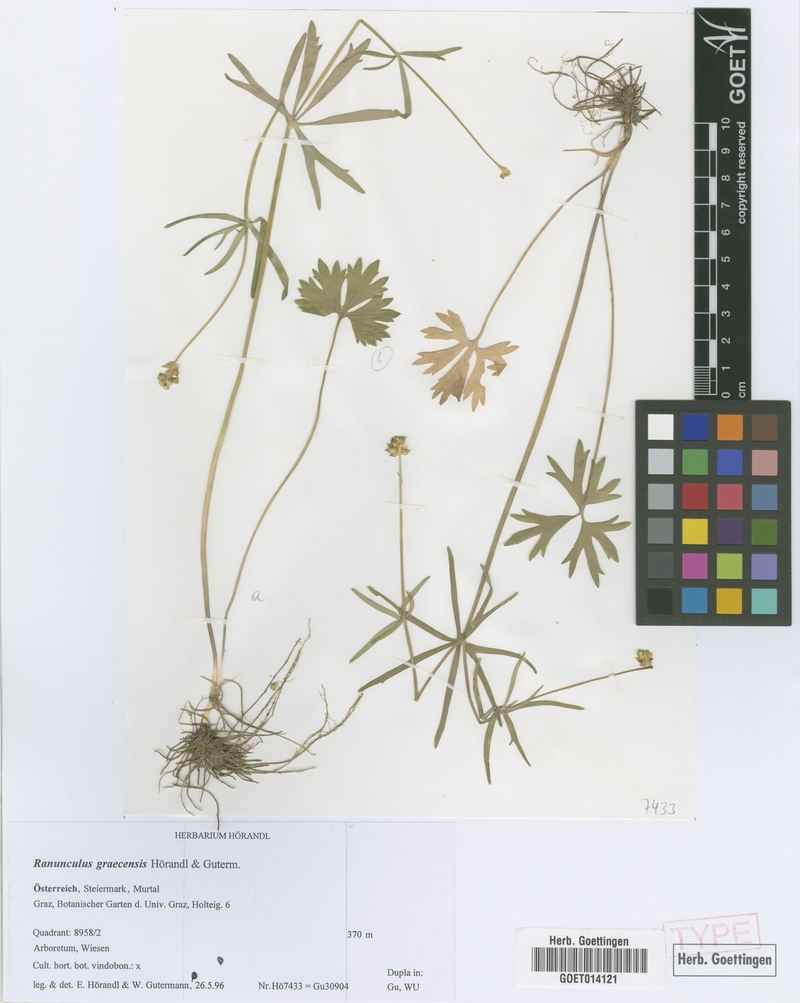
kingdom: Plantae
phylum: Tracheophyta
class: Magnoliopsida
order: Ranunculales
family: Ranunculaceae
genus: Ranunculus
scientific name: Ranunculus graecensis
